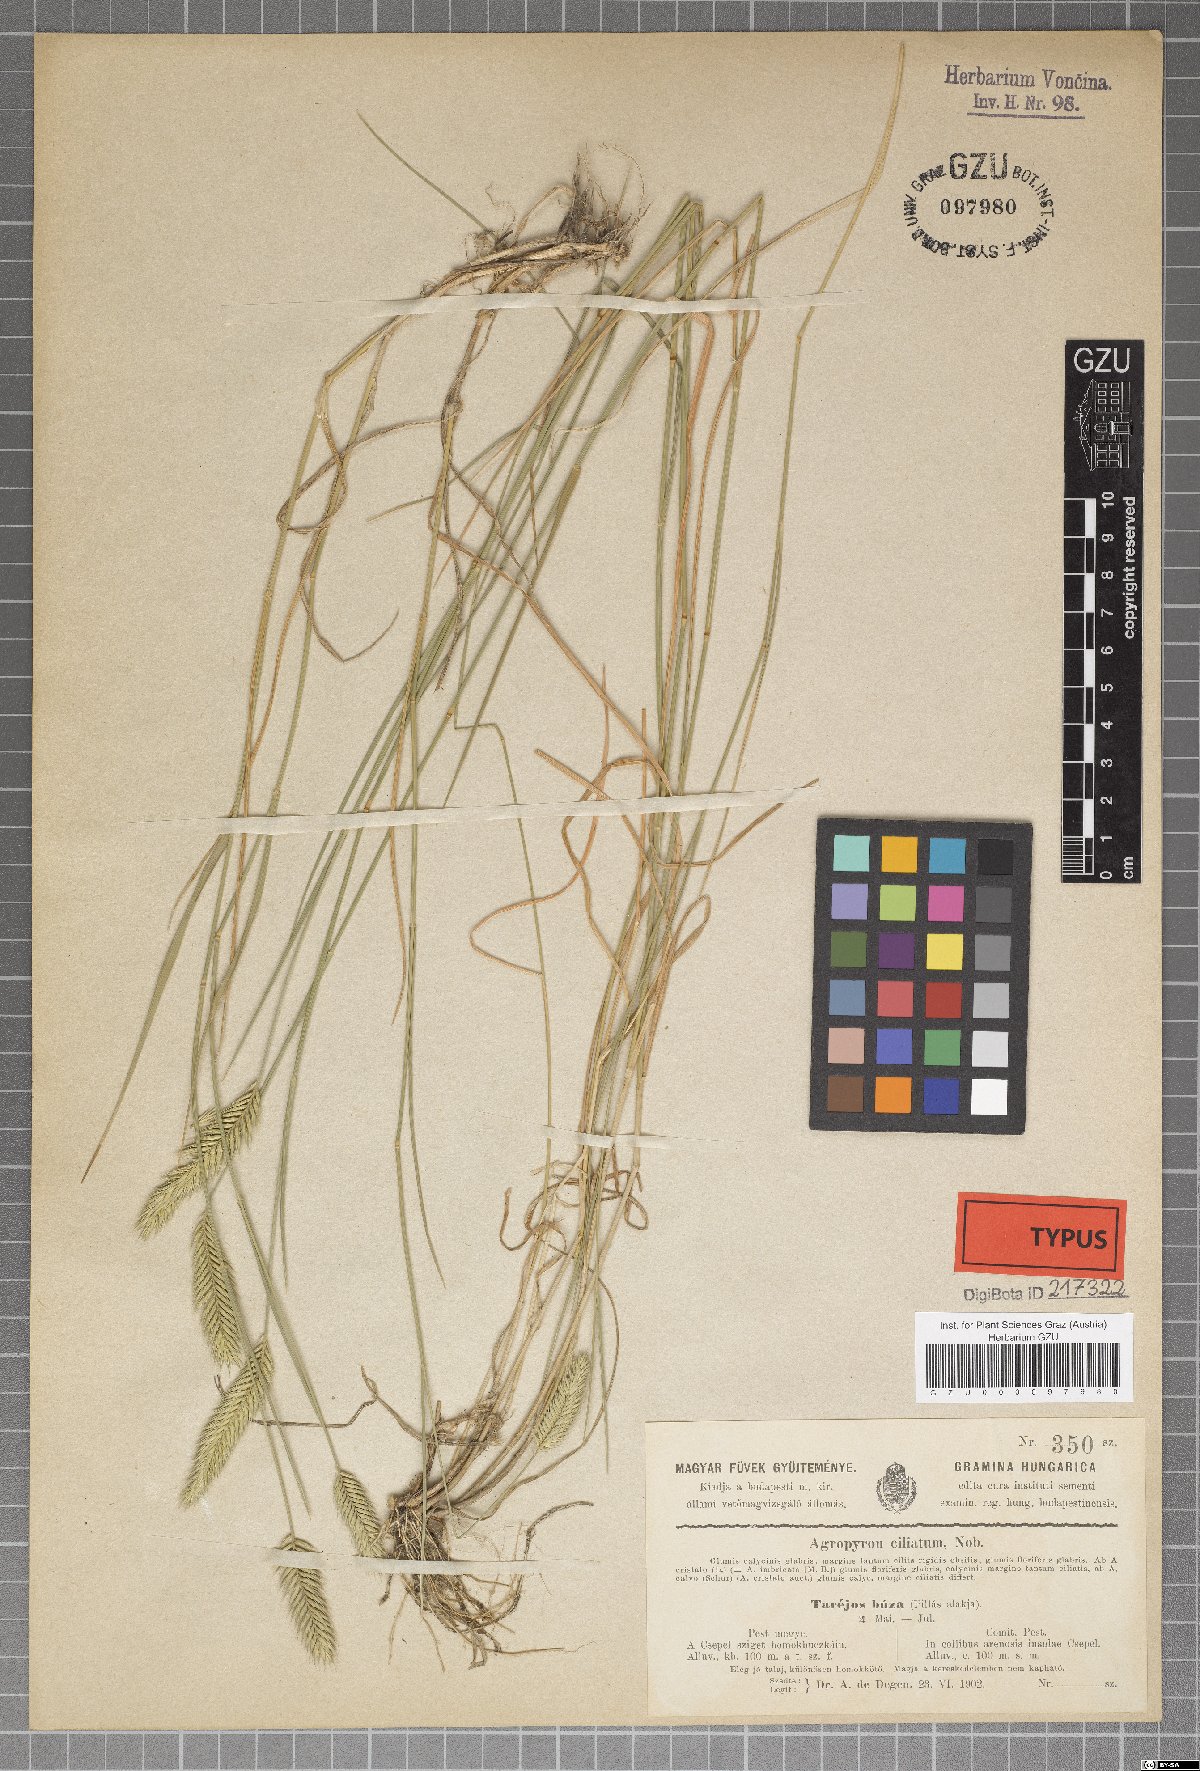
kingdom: Plantae
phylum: Tracheophyta
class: Liliopsida
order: Poales
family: Poaceae
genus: Elymus
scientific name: Elymus lolioides
